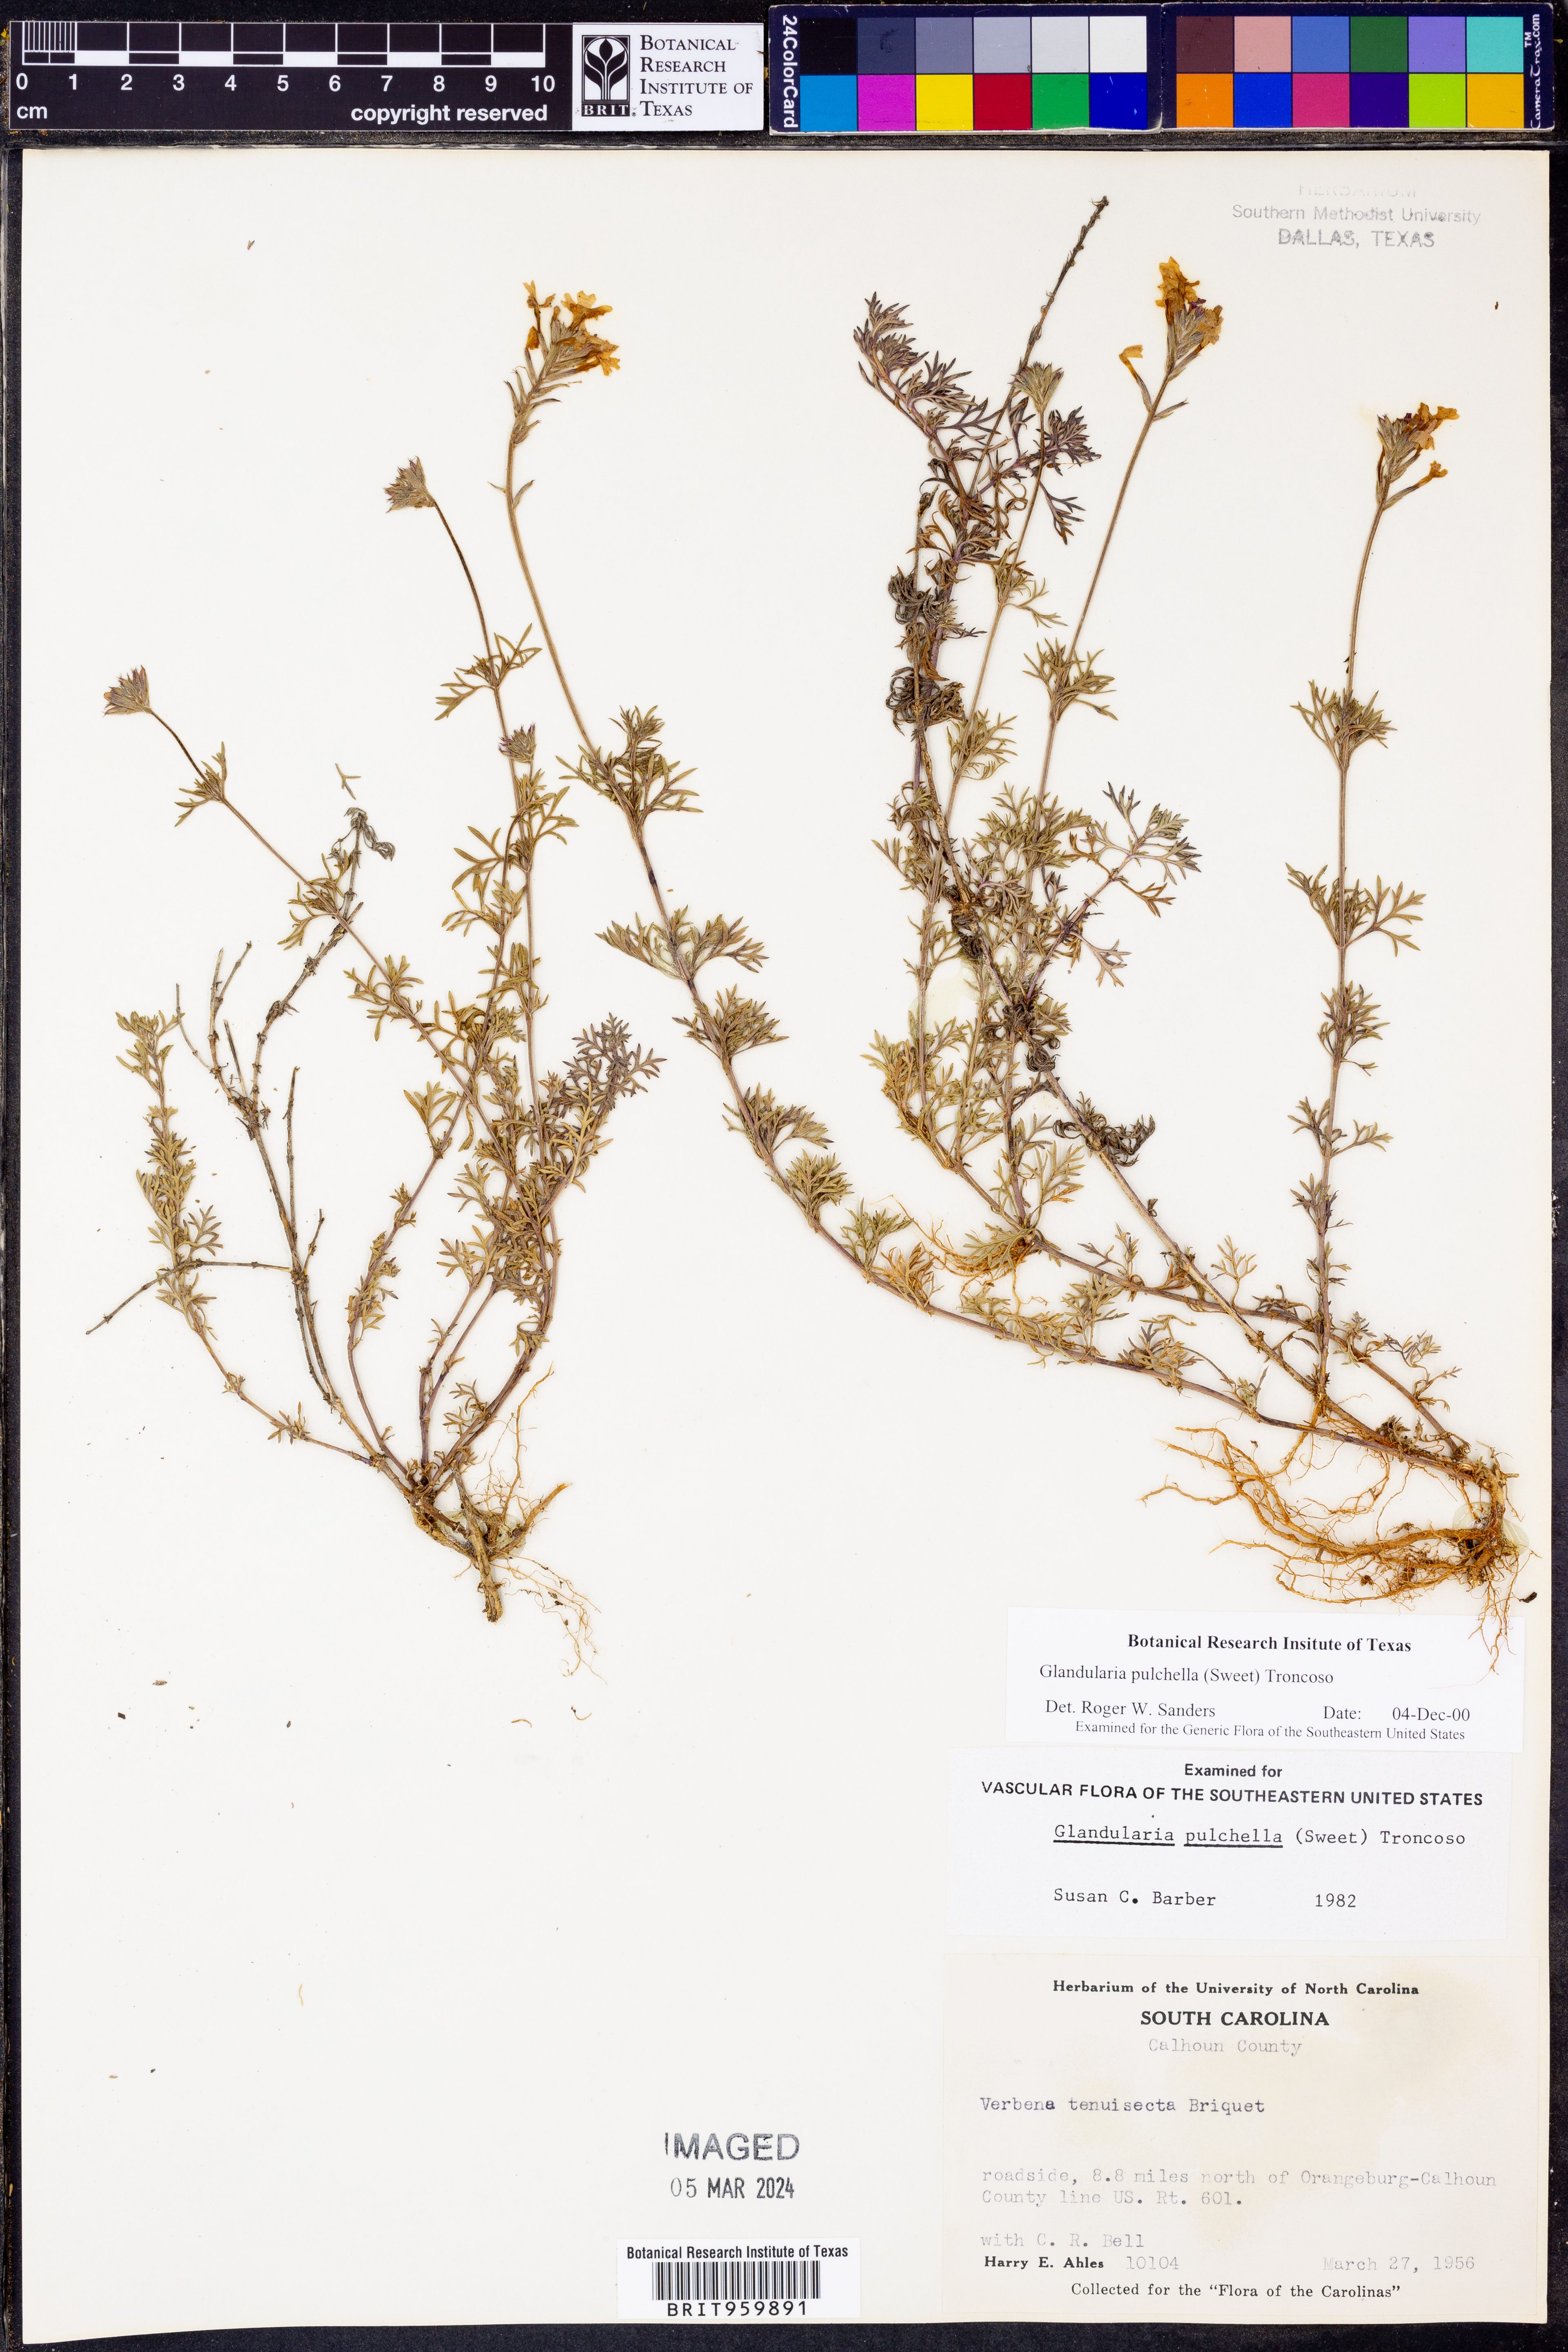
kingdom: Plantae
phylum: Tracheophyta
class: Magnoliopsida
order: Lamiales
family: Verbenaceae
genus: Verbena
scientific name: Verbena tenera
